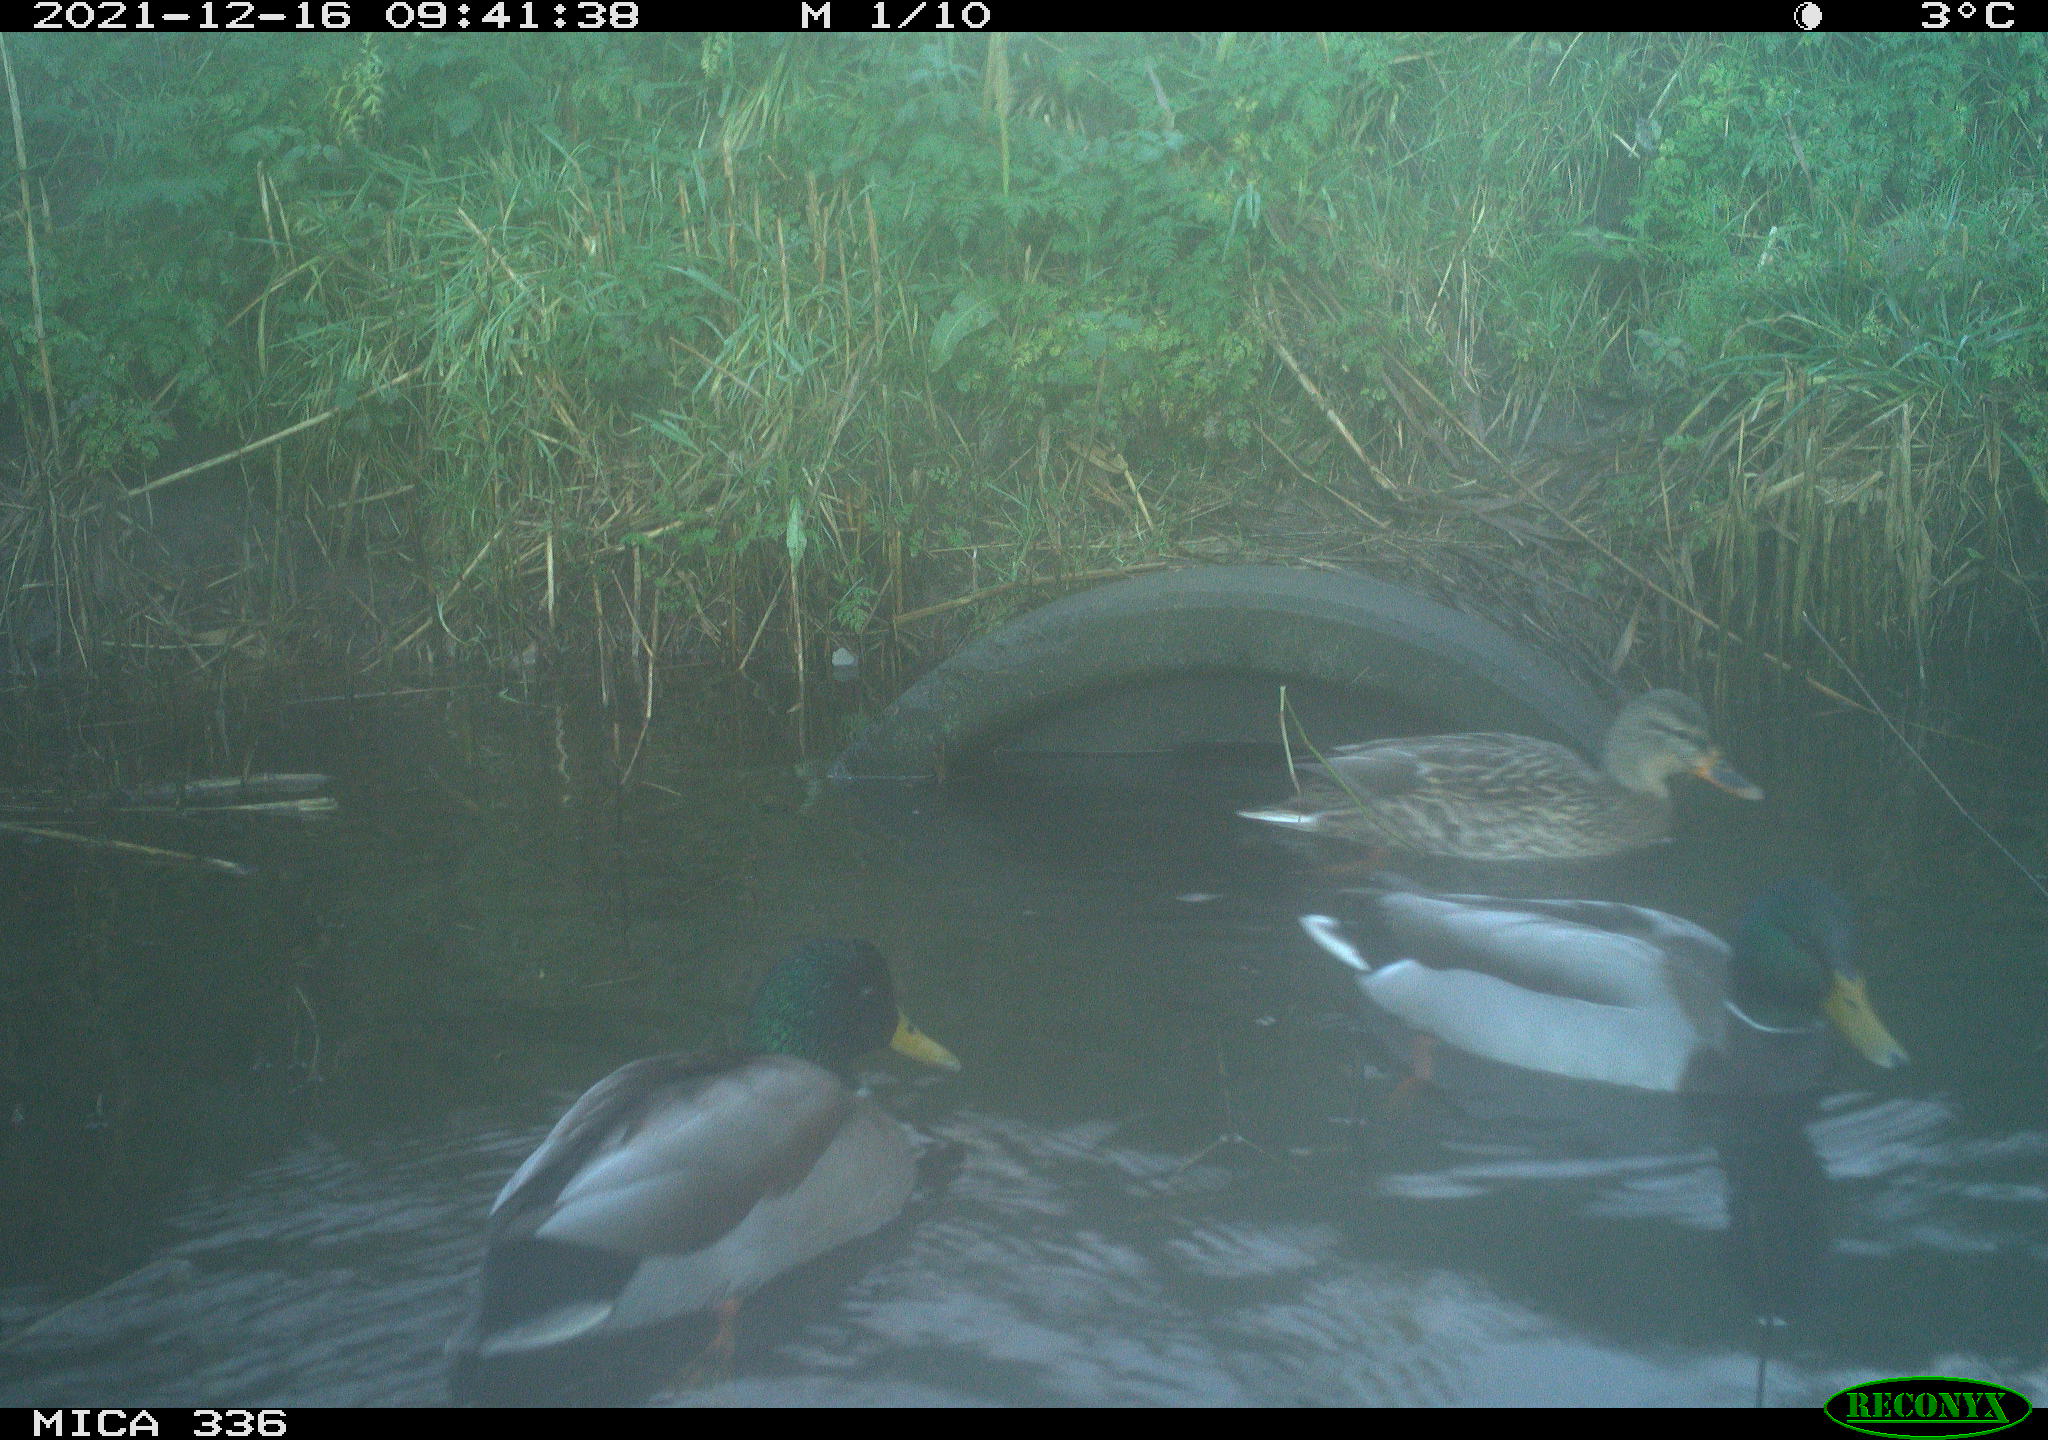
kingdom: Animalia
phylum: Chordata
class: Aves
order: Anseriformes
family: Anatidae
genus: Anas
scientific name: Anas platyrhynchos
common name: Mallard
